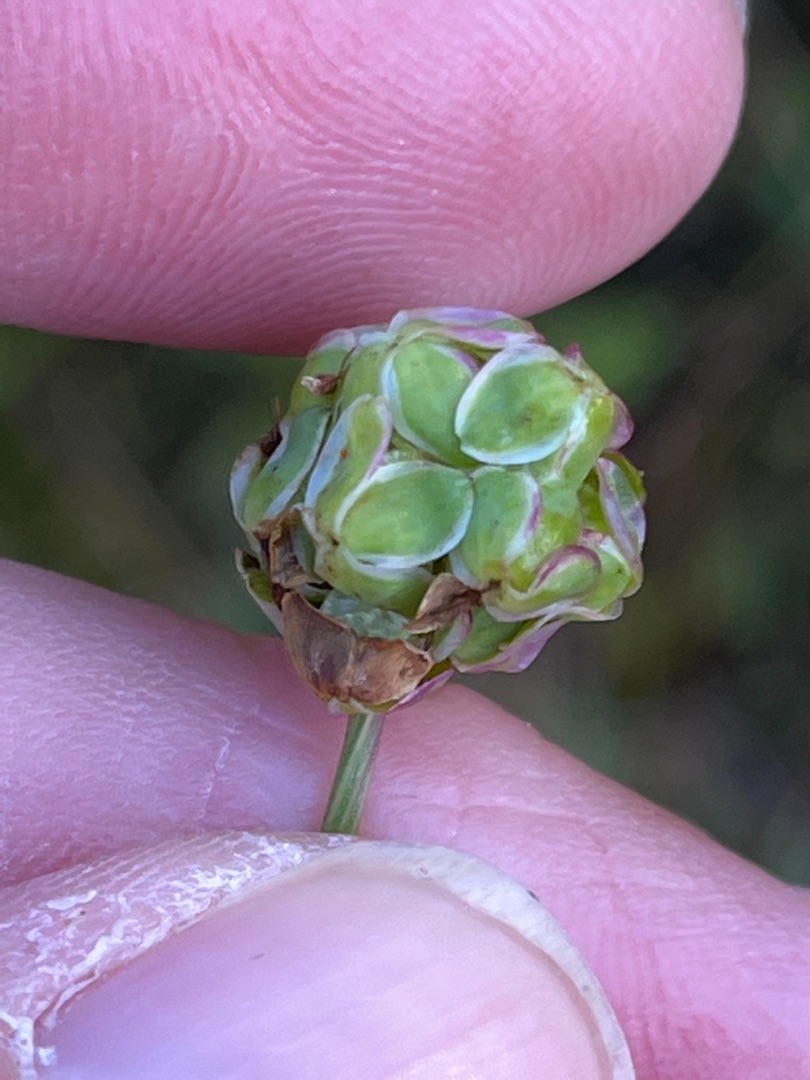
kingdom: Plantae
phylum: Tracheophyta
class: Magnoliopsida
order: Rosales
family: Rosaceae
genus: Poterium
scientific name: Poterium sanguisorba
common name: Vingefrøet bibernelle
